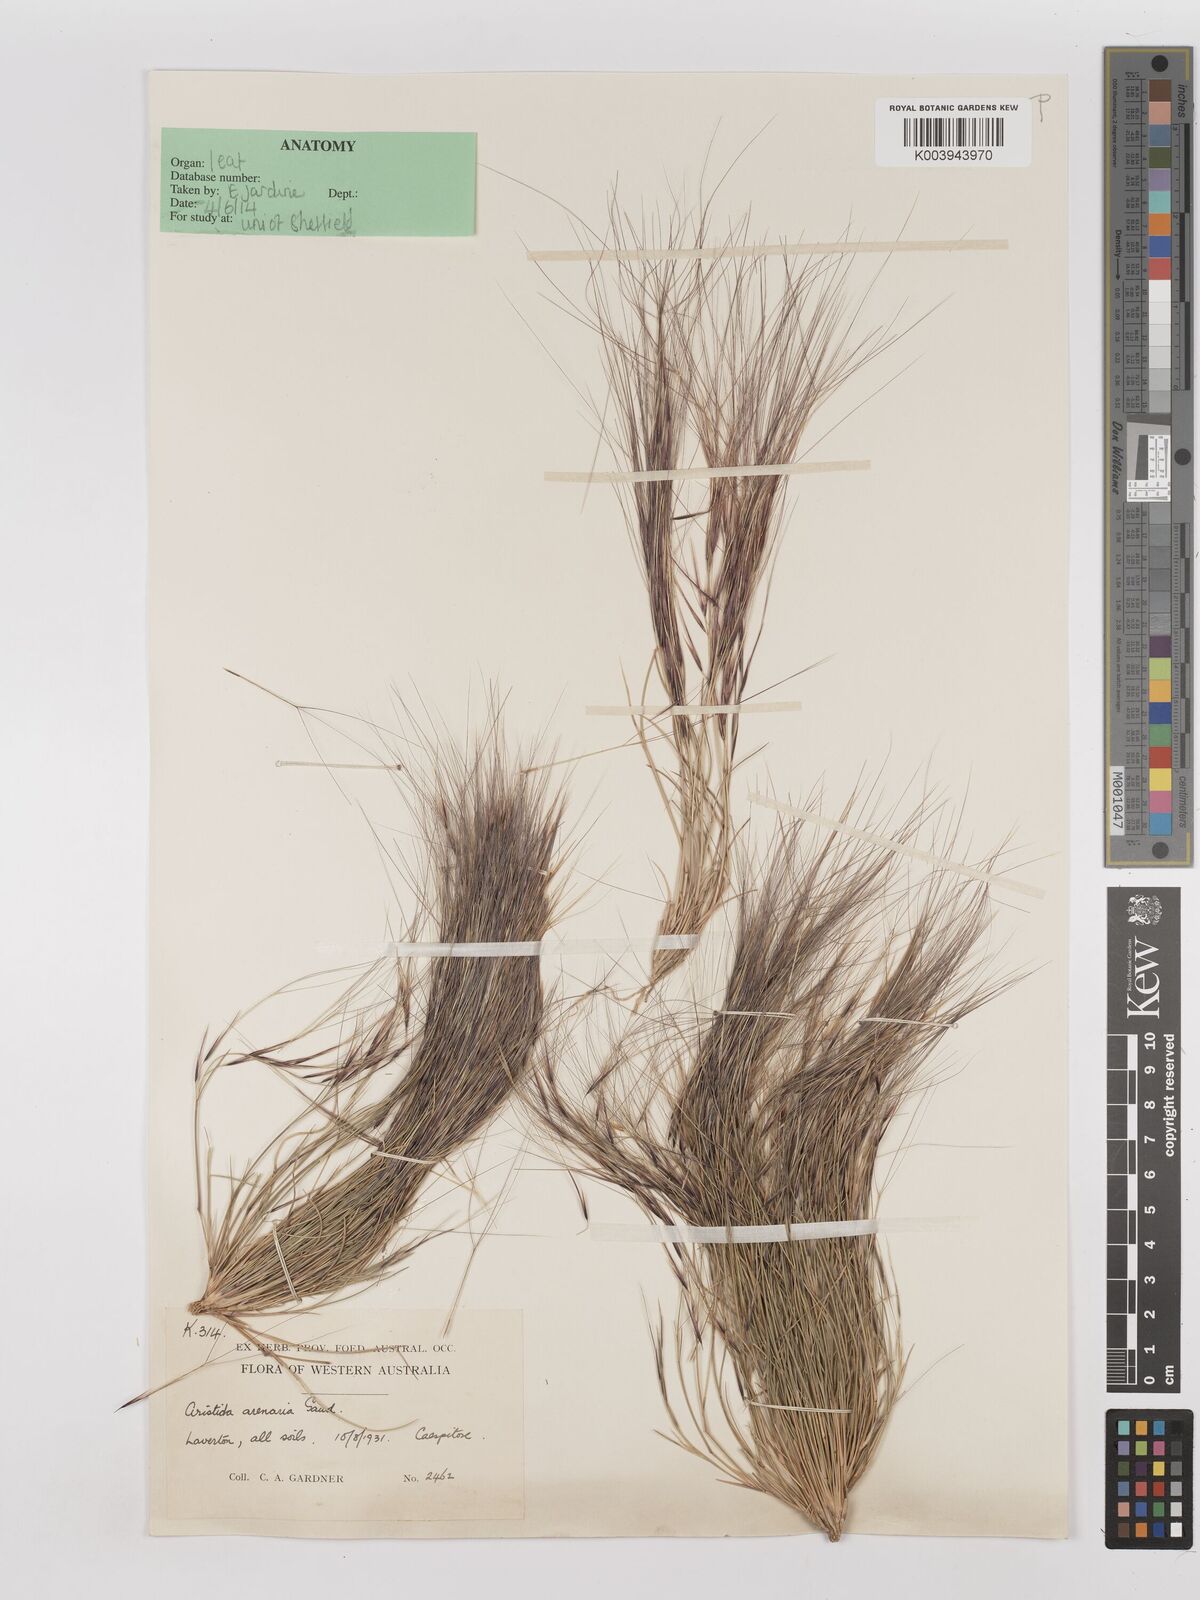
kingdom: Plantae
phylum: Tracheophyta
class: Liliopsida
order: Poales
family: Poaceae
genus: Aristida
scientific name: Aristida contorta
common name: Bunch kerosene grass
